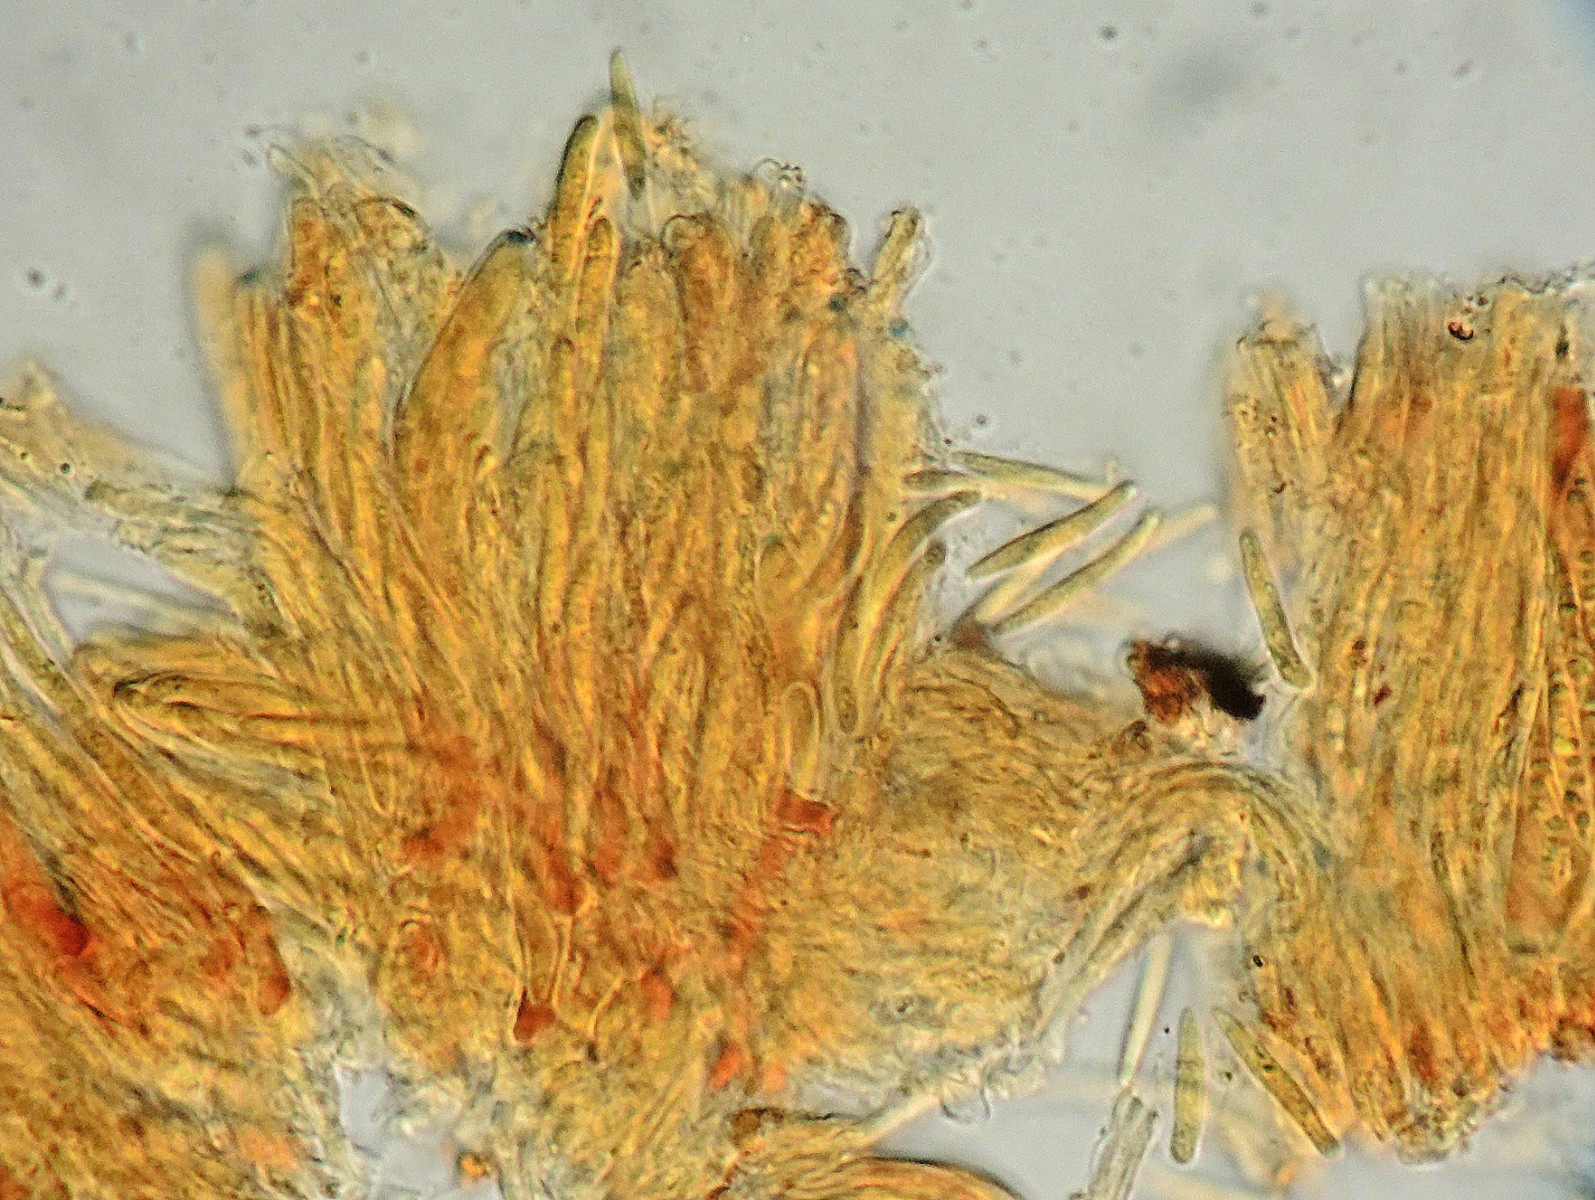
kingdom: Fungi
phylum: Ascomycota
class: Leotiomycetes
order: Helotiales
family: Pezizellaceae
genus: Allophylaria
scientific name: Allophylaria basalifusca
